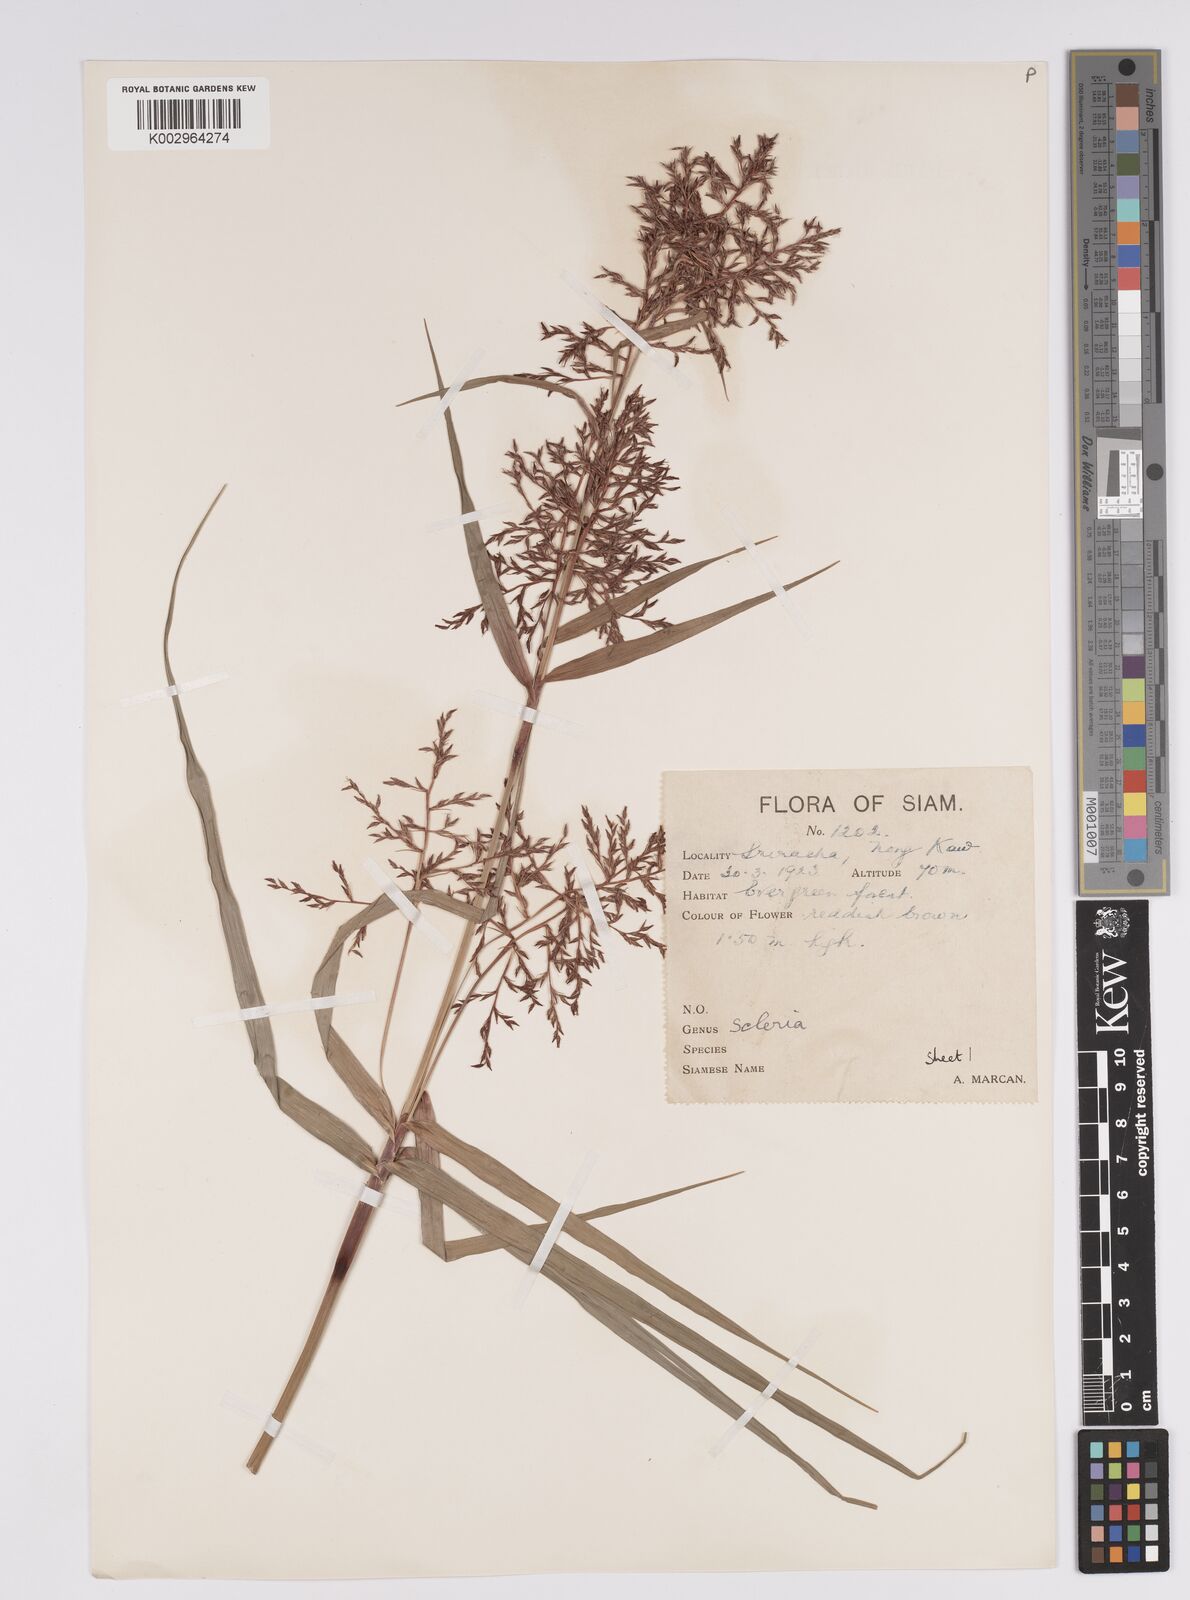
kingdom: Plantae
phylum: Tracheophyta
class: Liliopsida
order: Poales
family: Cyperaceae
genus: Scleria
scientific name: Scleria
